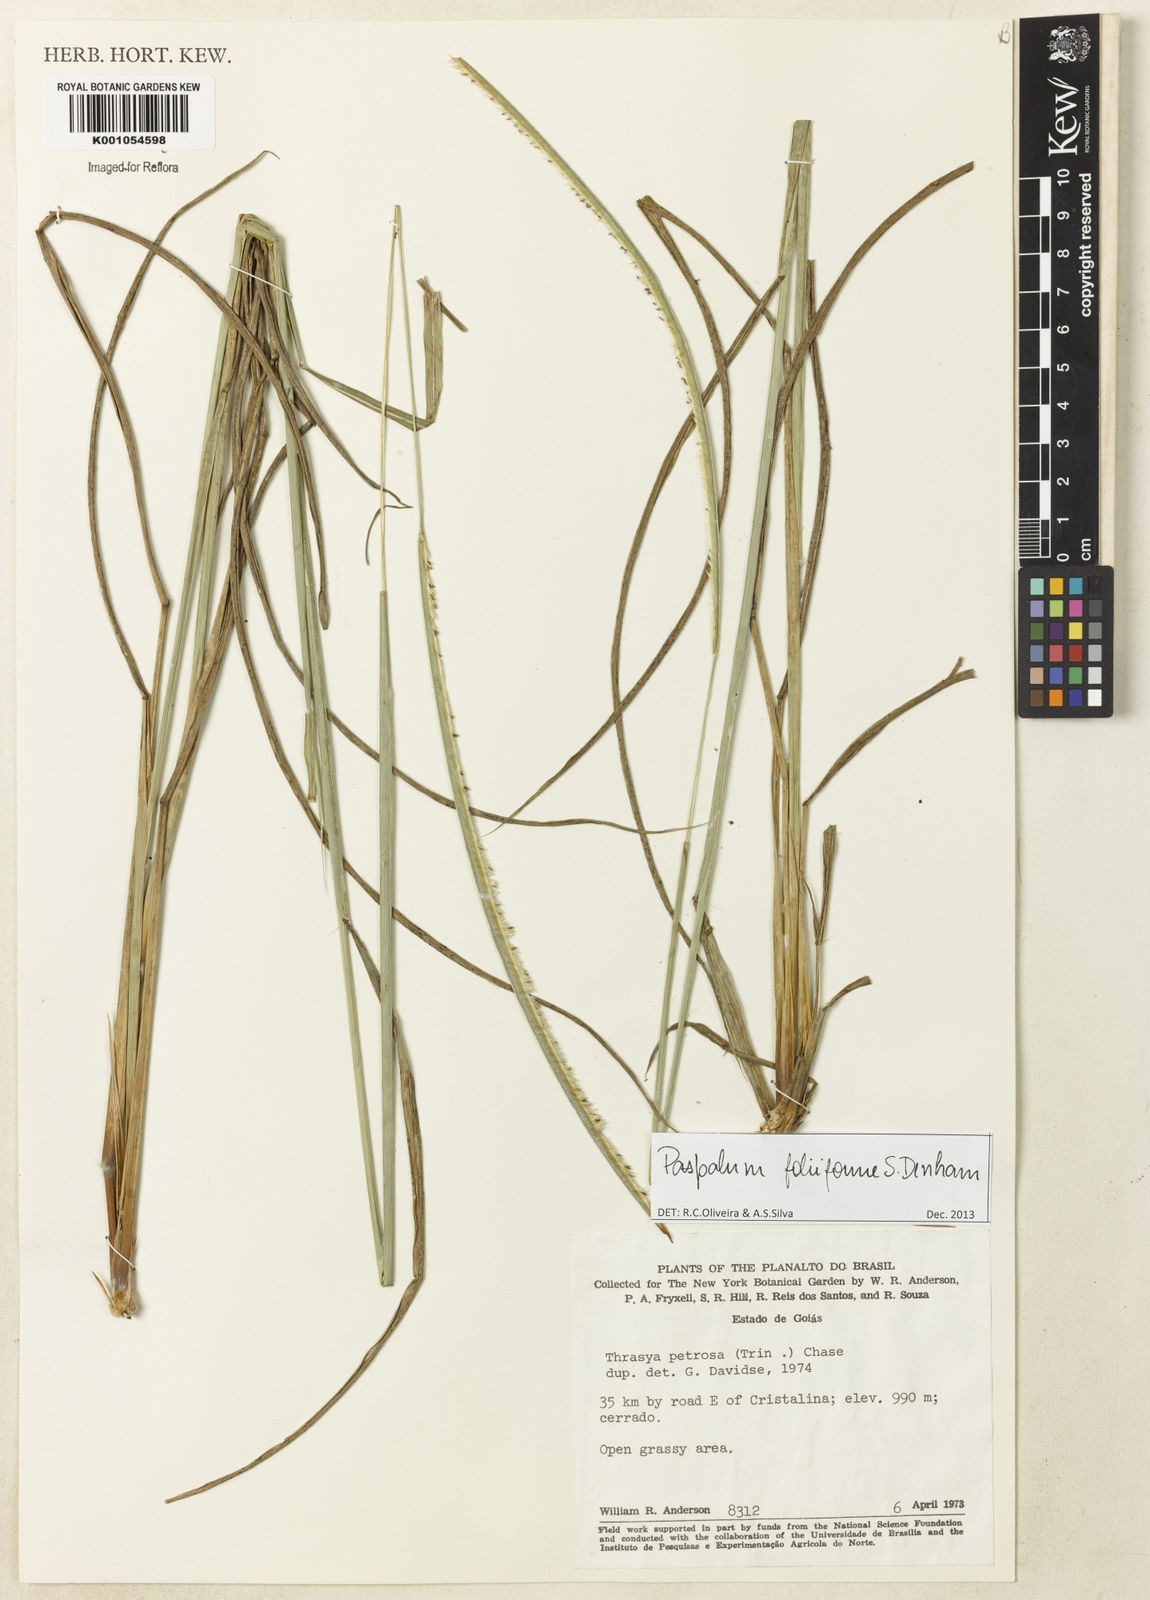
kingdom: Plantae
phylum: Tracheophyta
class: Liliopsida
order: Poales
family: Poaceae
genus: Paspalum
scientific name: Paspalum foliiforme
